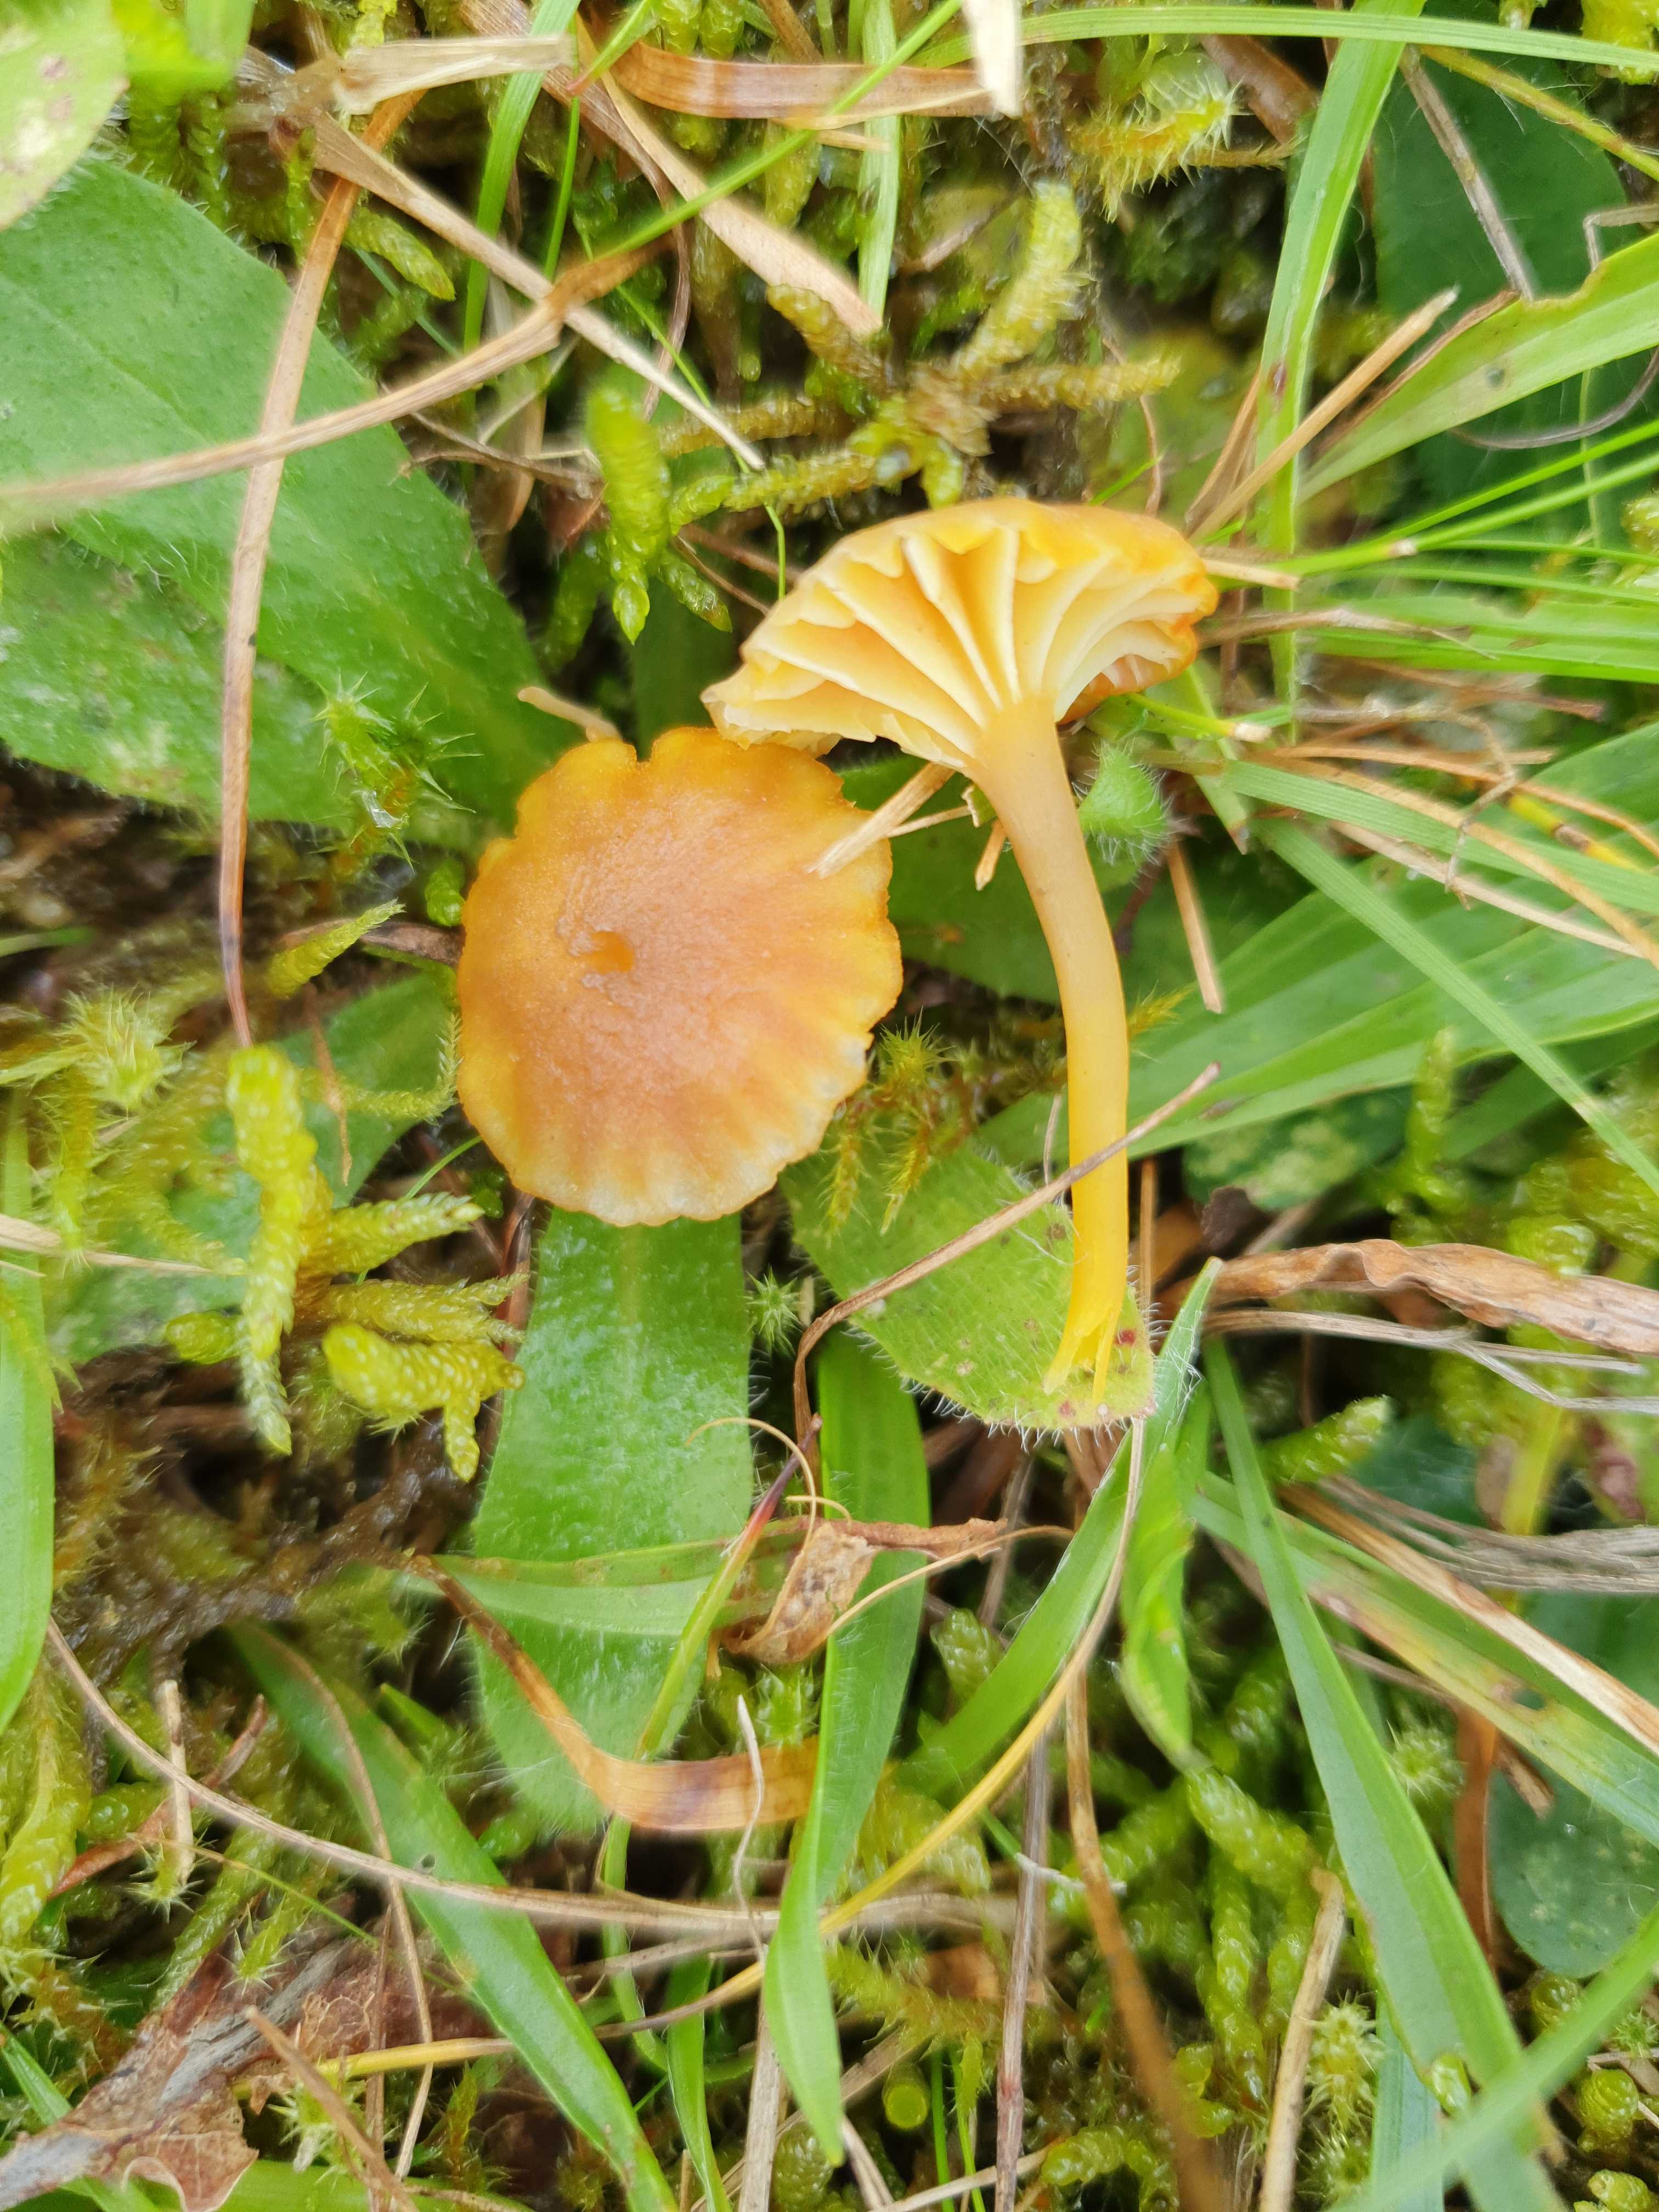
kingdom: Fungi
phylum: Basidiomycota
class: Agaricomycetes
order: Agaricales
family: Hygrophoraceae
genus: Hygrocybe
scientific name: Hygrocybe cantharellus
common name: kantarel-vokshat
